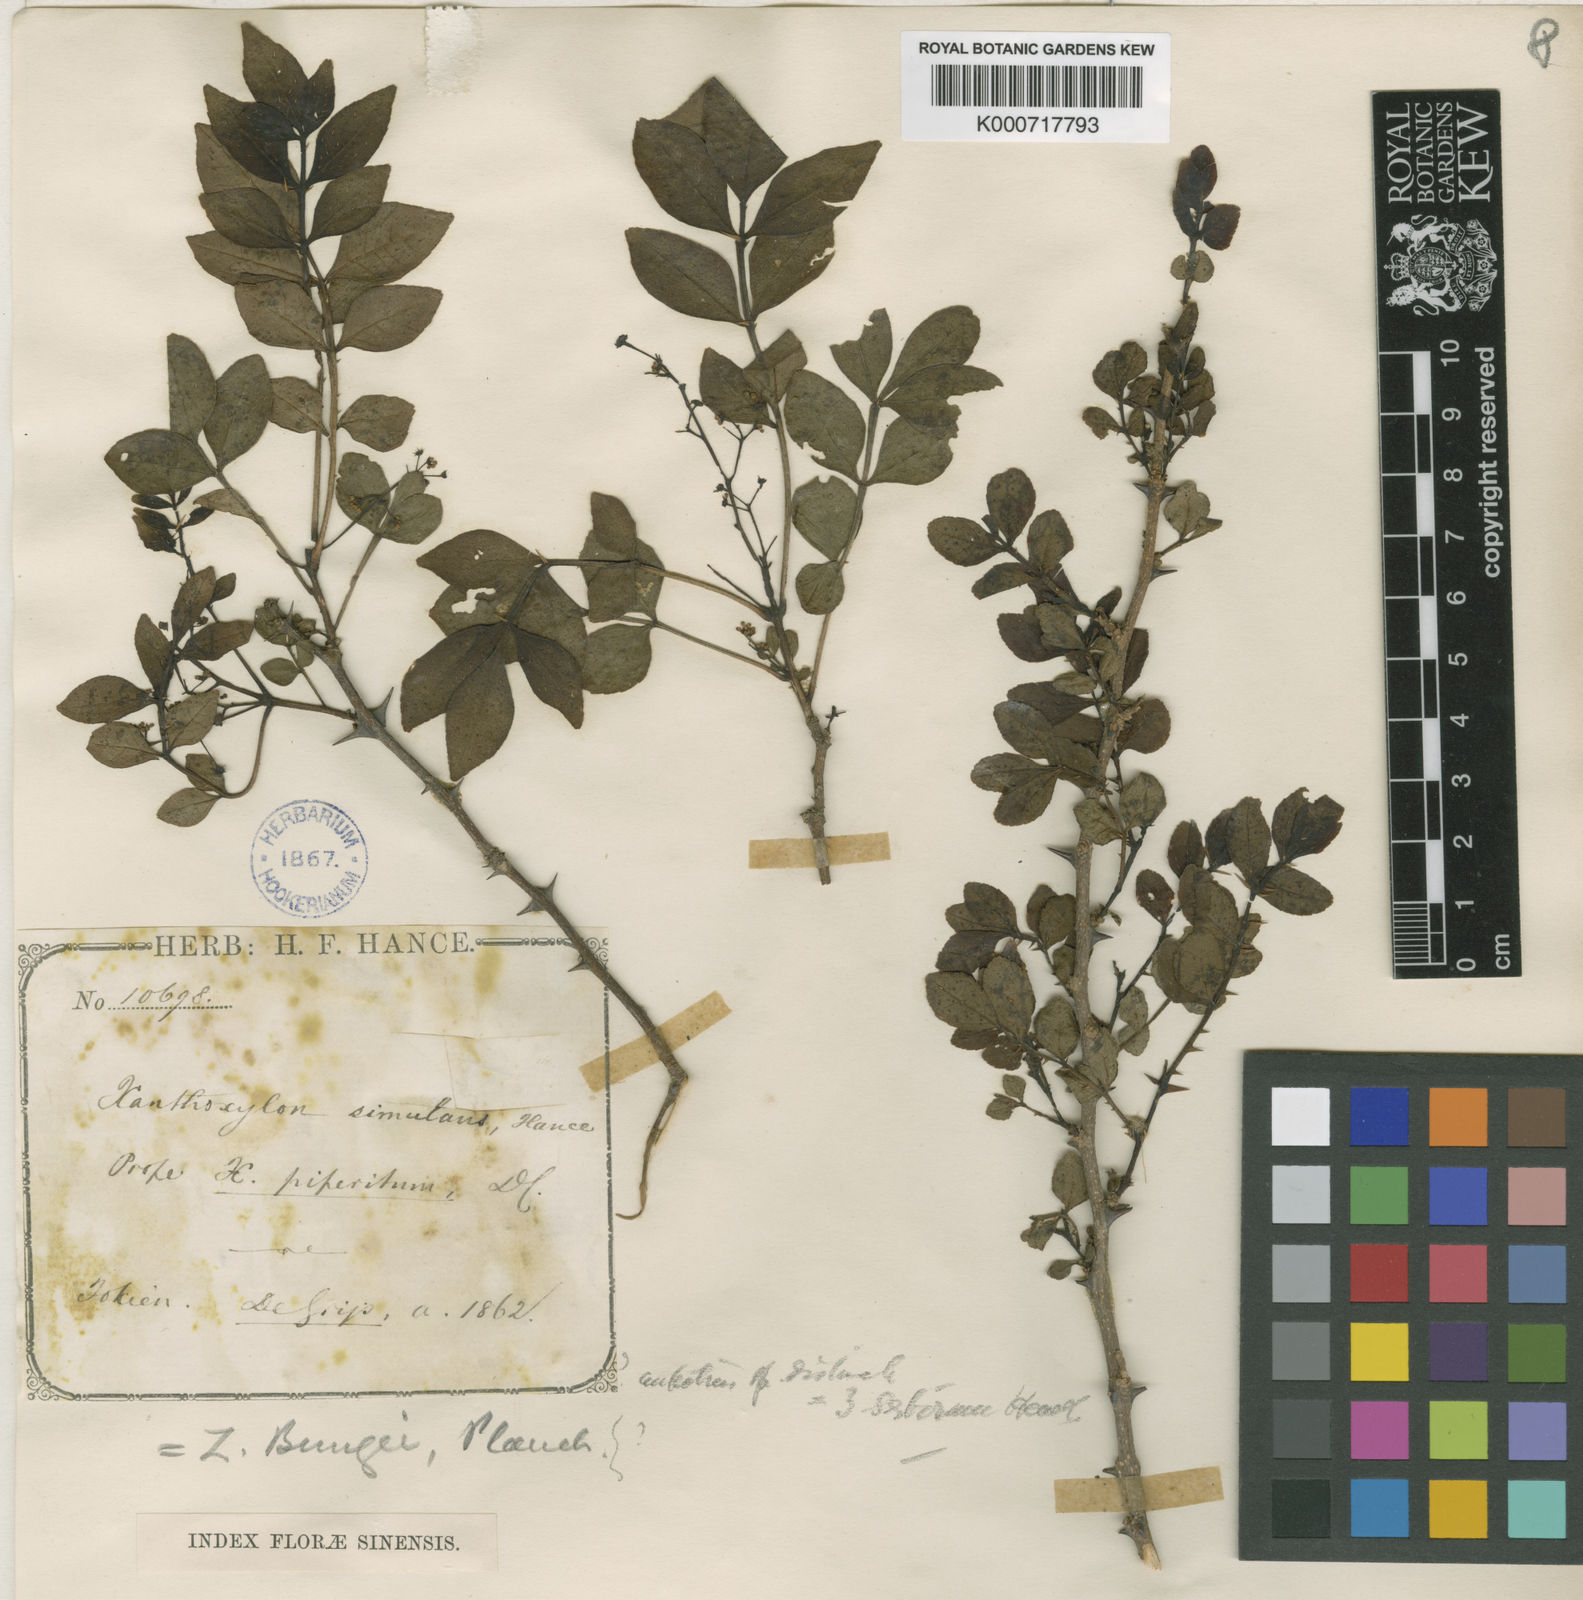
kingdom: Plantae
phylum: Tracheophyta
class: Magnoliopsida
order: Sapindales
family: Rutaceae
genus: Zanthoxylum
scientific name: Zanthoxylum simulans
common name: Chinese-pepper
